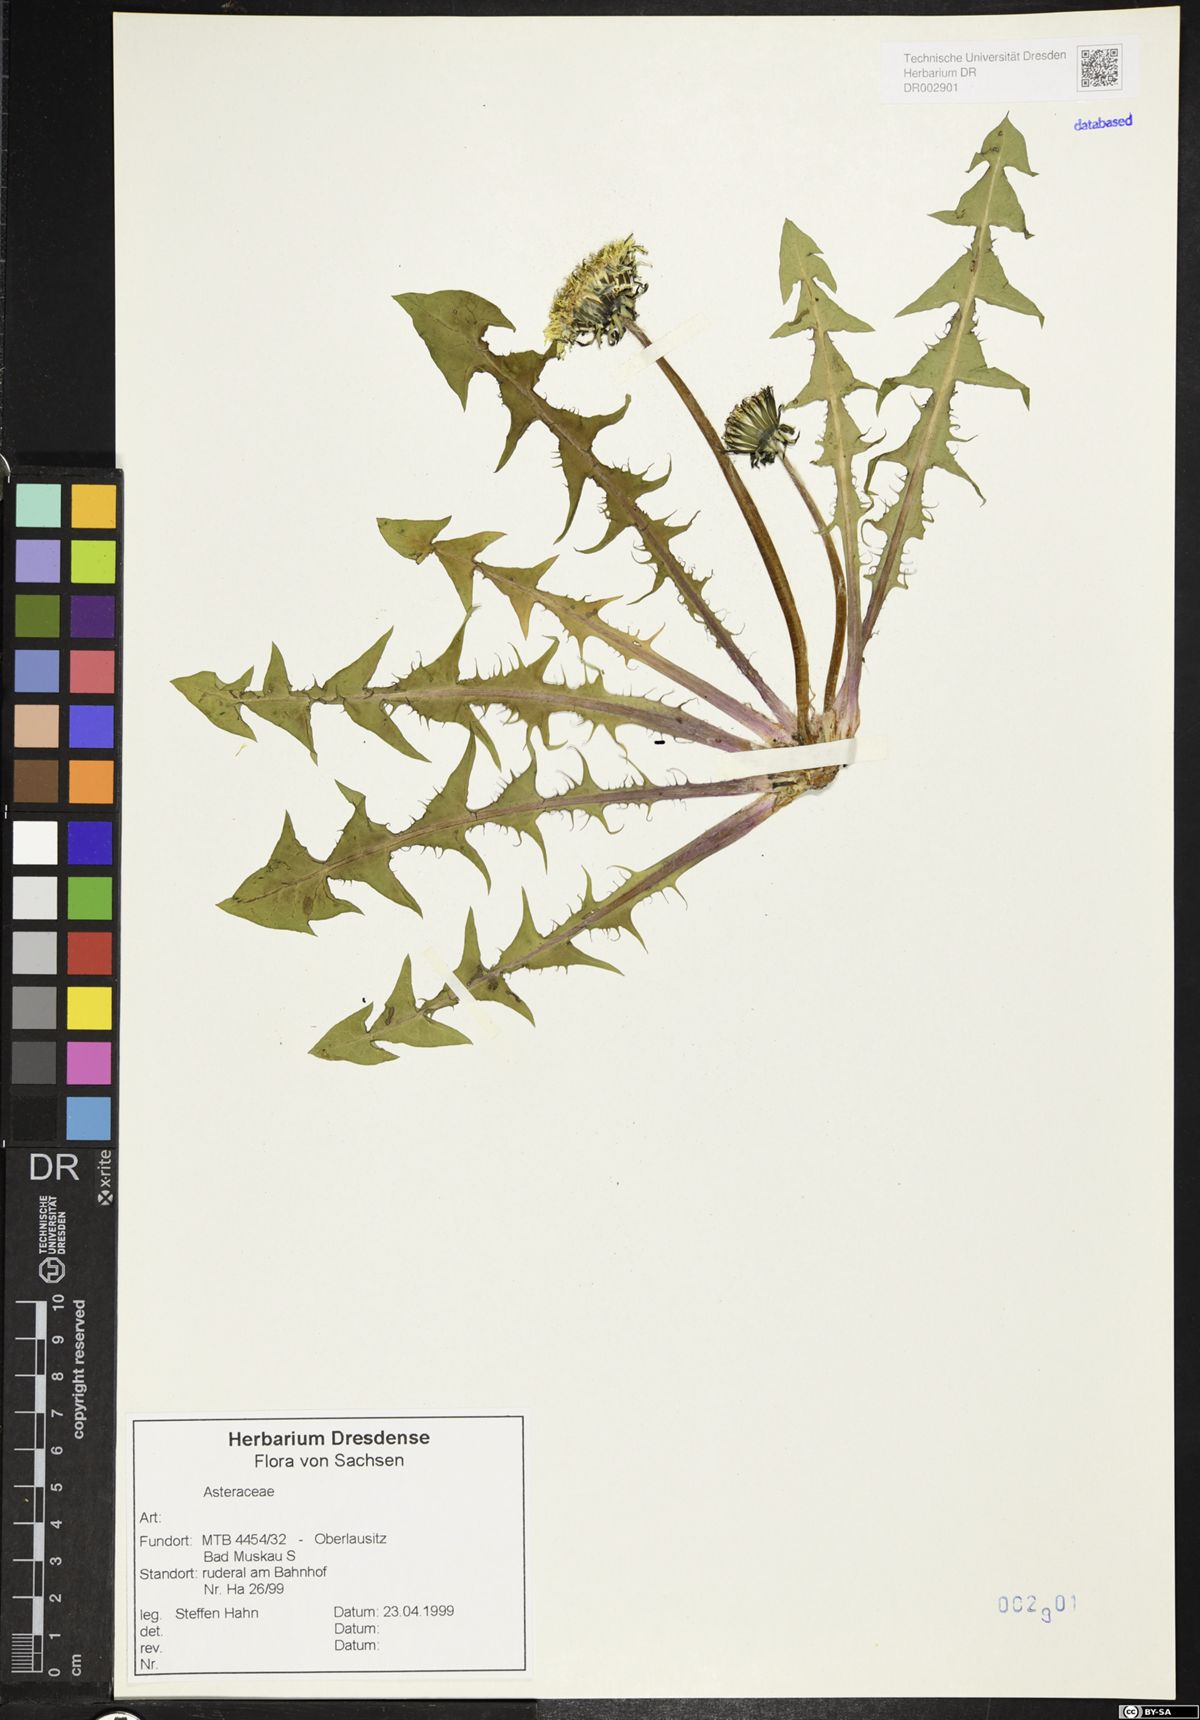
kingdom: Plantae
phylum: Tracheophyta
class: Magnoliopsida
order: Asterales
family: Asteraceae
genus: Taraxacum
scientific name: Taraxacum debrayi
